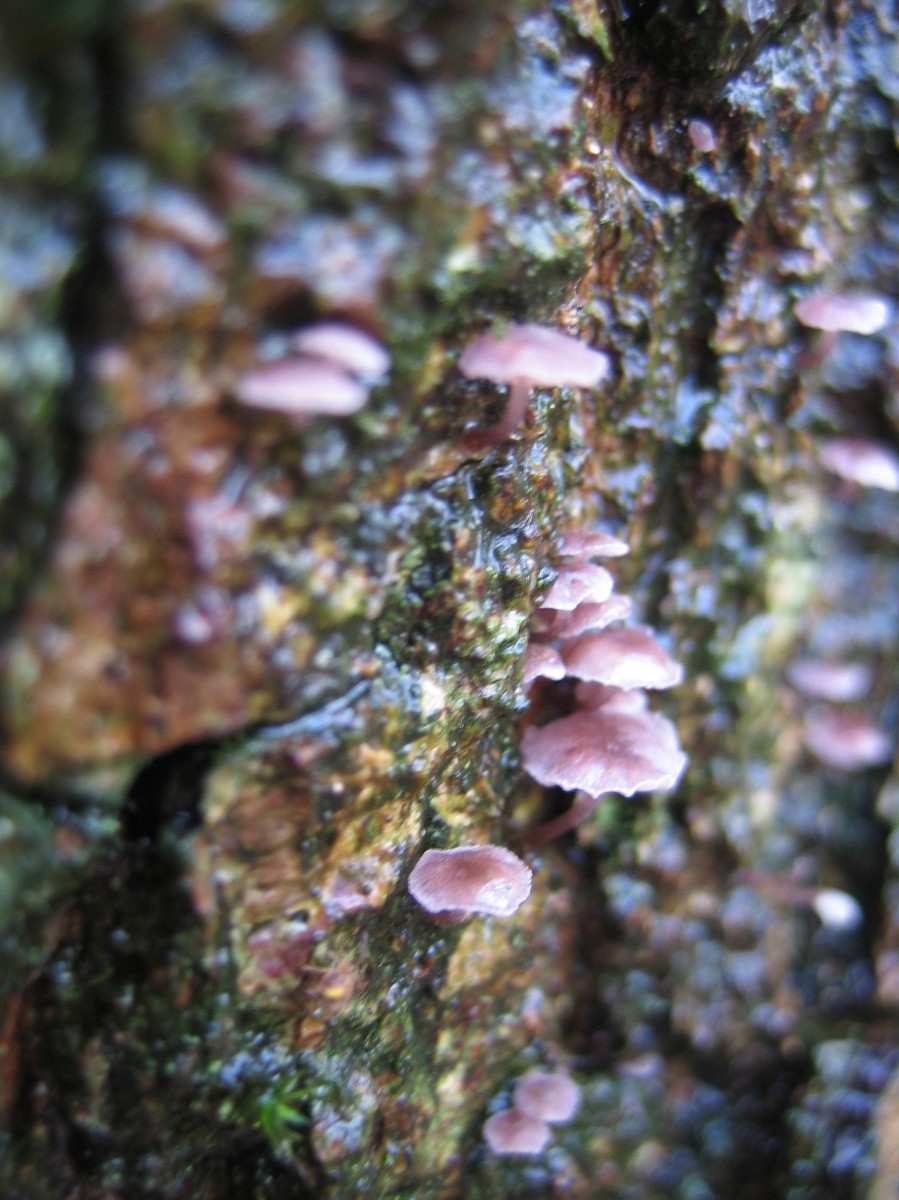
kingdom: Fungi
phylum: Basidiomycota
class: Agaricomycetes
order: Agaricales
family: Mycenaceae
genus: Mycena
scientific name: Mycena meliigena
